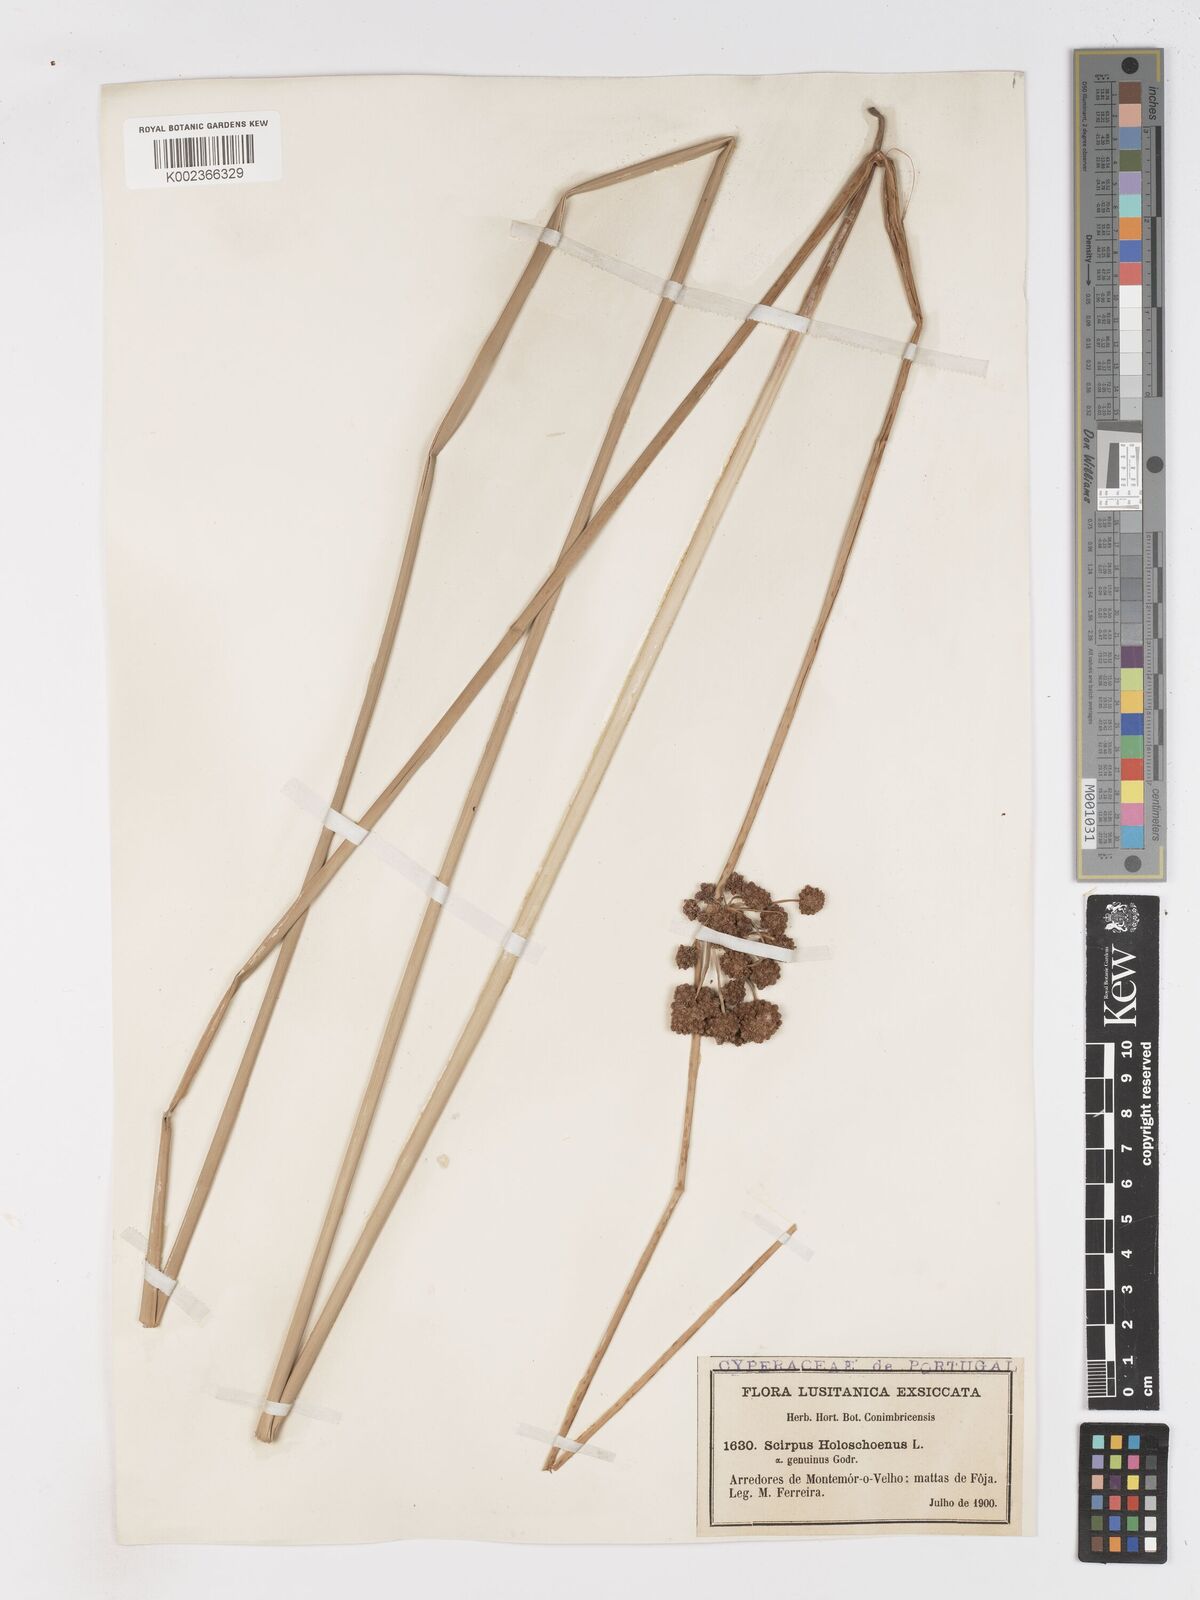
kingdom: Plantae
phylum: Tracheophyta
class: Liliopsida
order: Poales
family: Cyperaceae
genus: Scirpoides
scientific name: Scirpoides holoschoenus
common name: Round-headed club-rush
